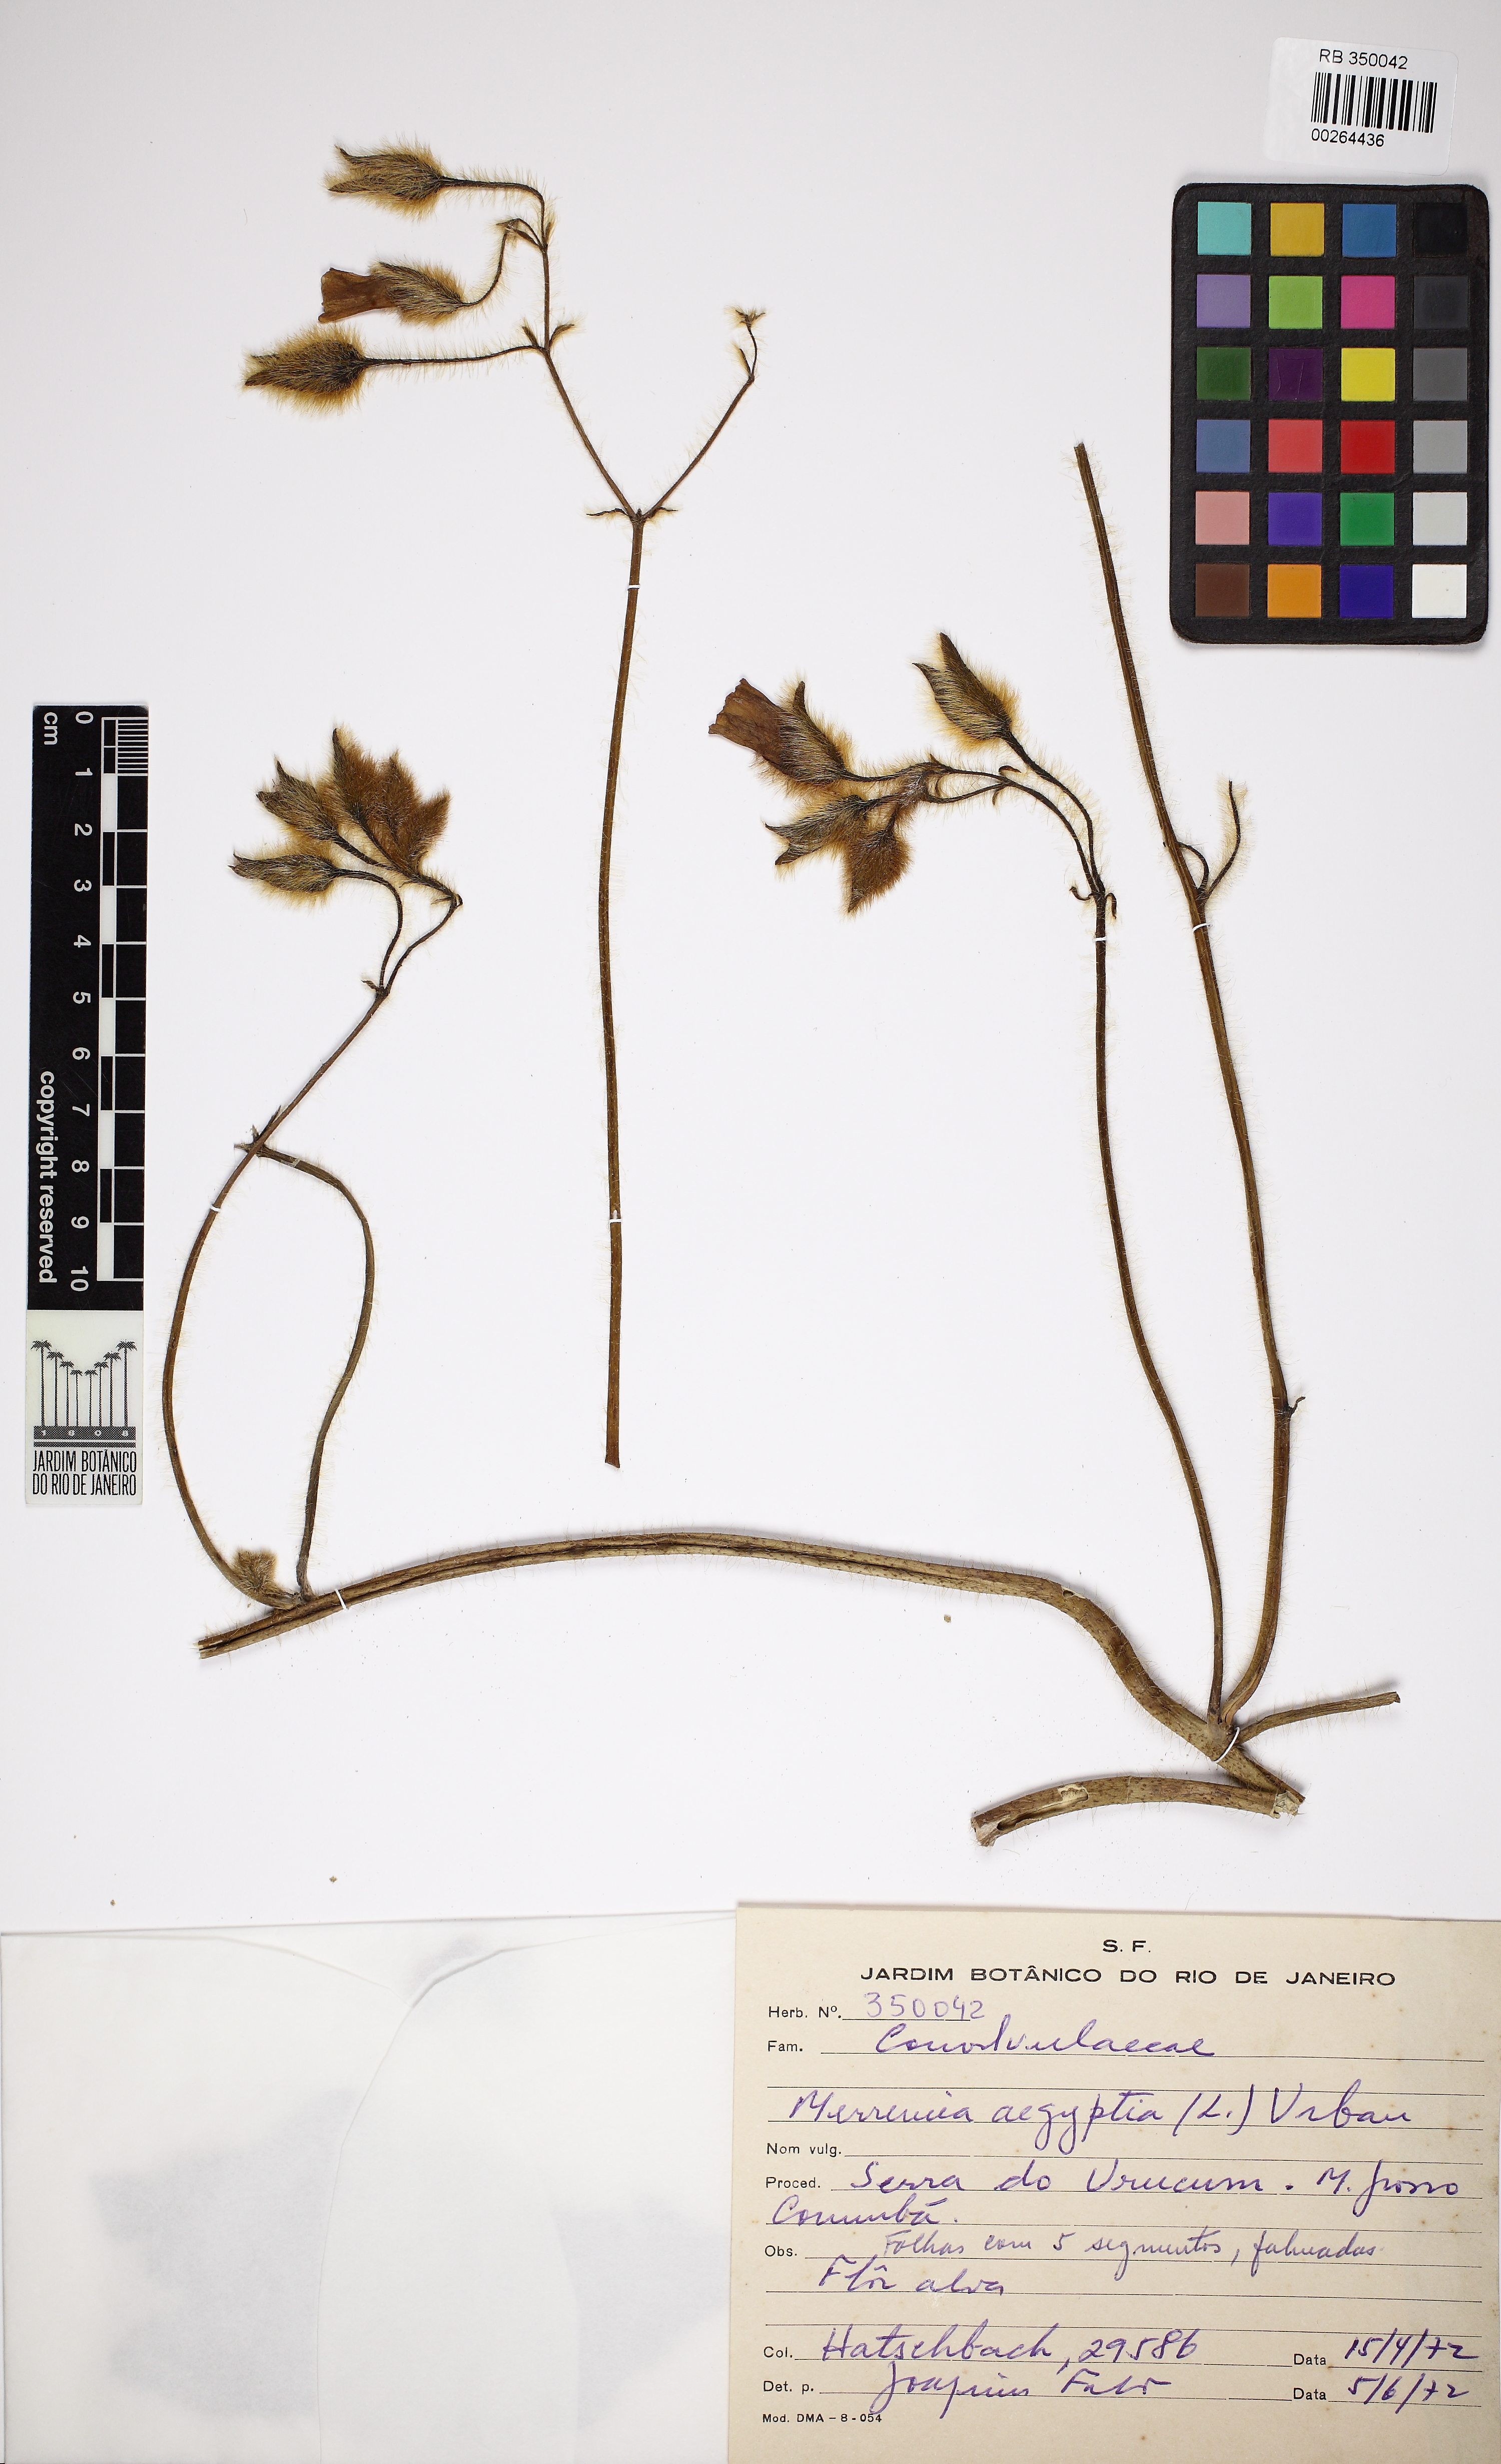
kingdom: Plantae
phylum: Tracheophyta
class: Magnoliopsida
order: Solanales
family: Convolvulaceae
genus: Distimake
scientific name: Distimake aegyptius
